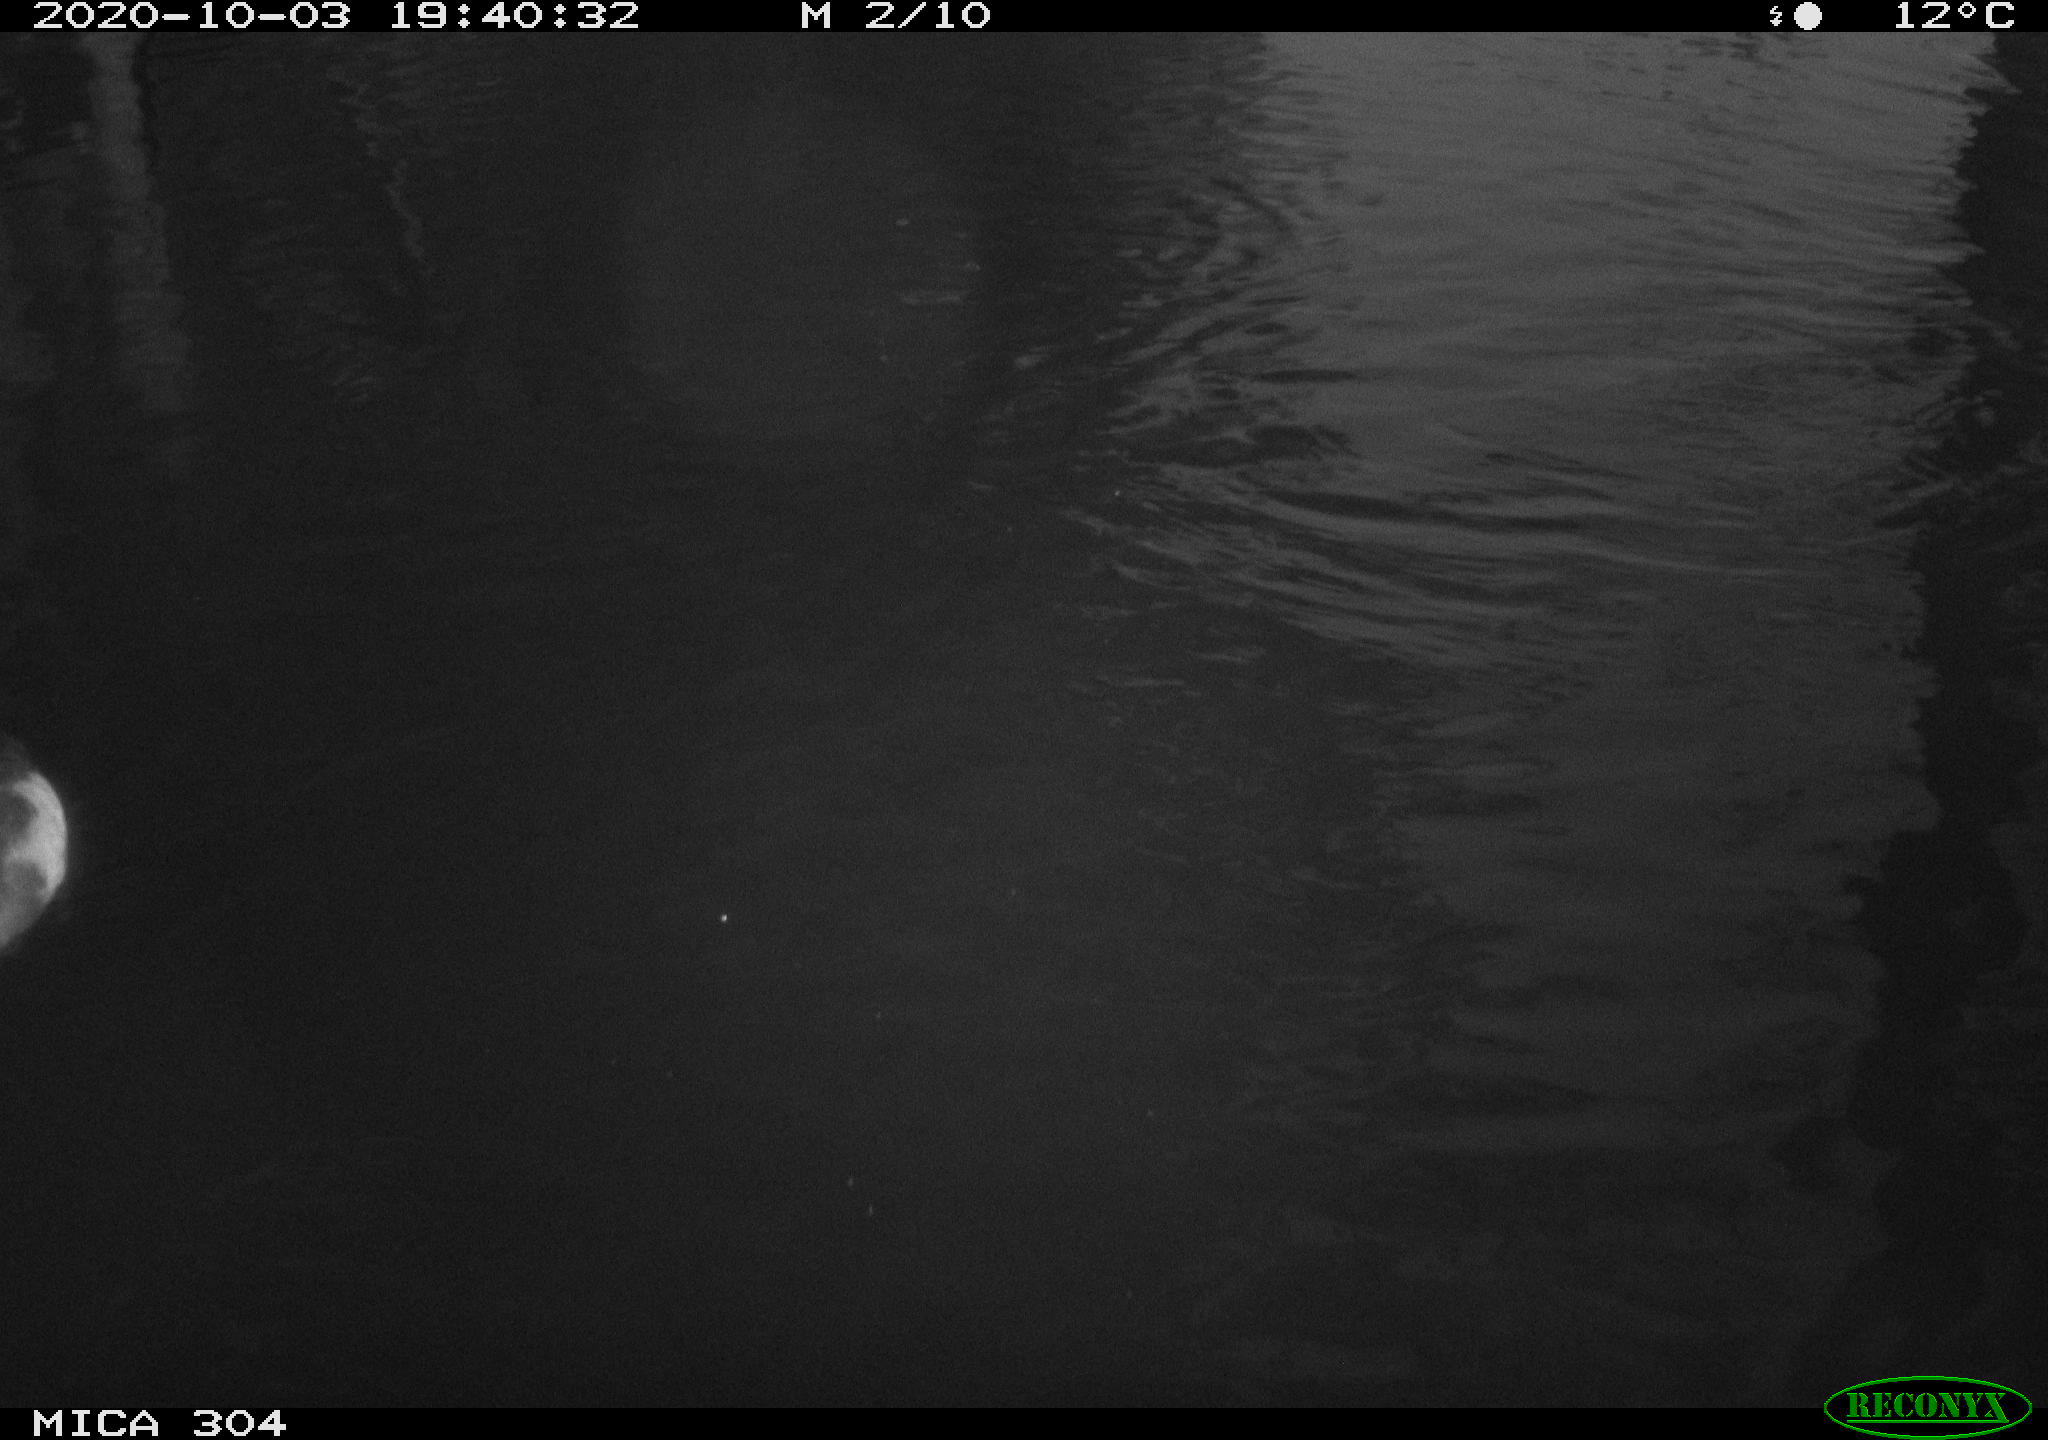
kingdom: Animalia
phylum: Chordata
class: Aves
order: Gruiformes
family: Rallidae
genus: Gallinula
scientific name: Gallinula chloropus
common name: Common moorhen
